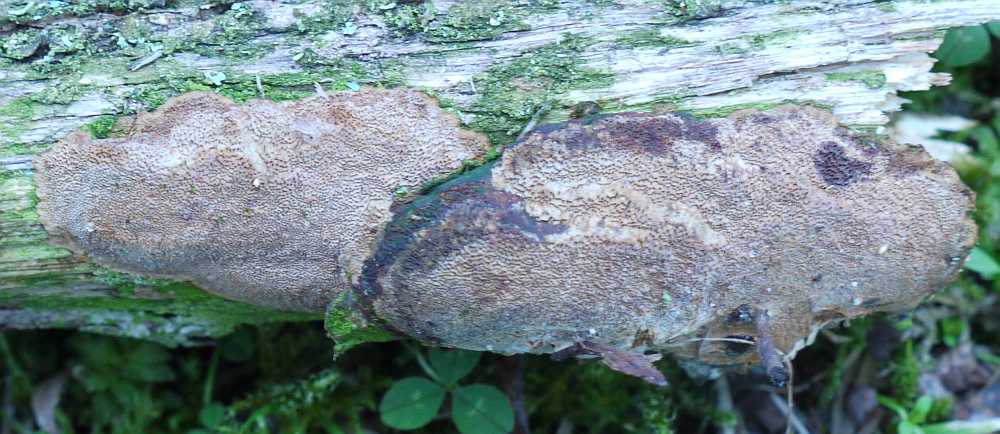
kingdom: Fungi
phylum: Basidiomycota
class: Agaricomycetes
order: Hymenochaetales
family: Hymenochaetaceae
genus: Fuscoporia
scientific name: Fuscoporia ferrea
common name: skorpe-ildporesvamp
